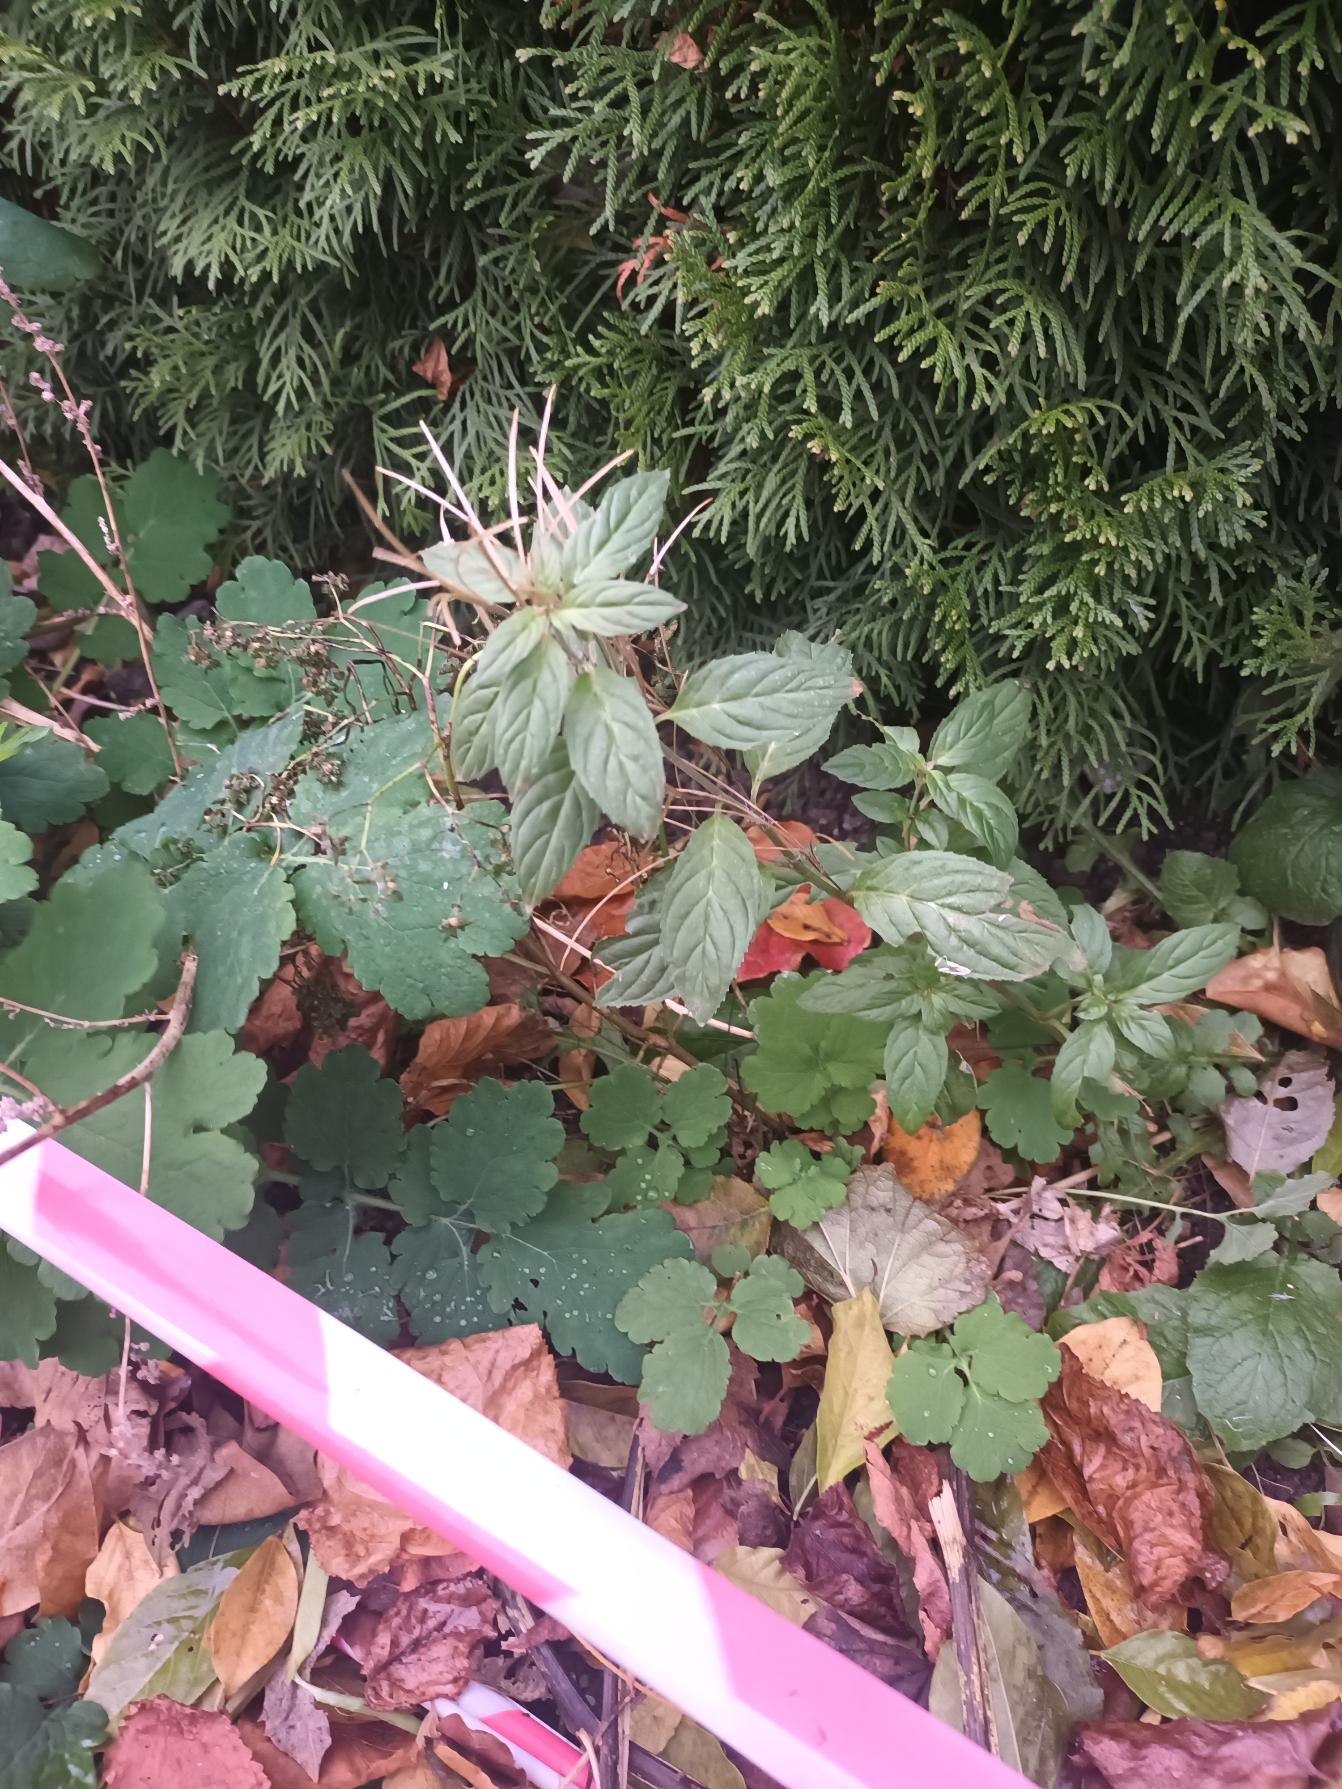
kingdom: Plantae
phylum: Tracheophyta
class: Magnoliopsida
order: Myrtales
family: Onagraceae
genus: Epilobium
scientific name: Epilobium roseum
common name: Rosen-dueurt
